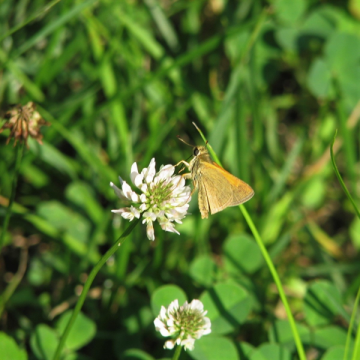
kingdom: Animalia
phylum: Arthropoda
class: Insecta
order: Lepidoptera
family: Hesperiidae
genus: Polites
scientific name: Polites themistocles
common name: Tawny-edged Skipper
